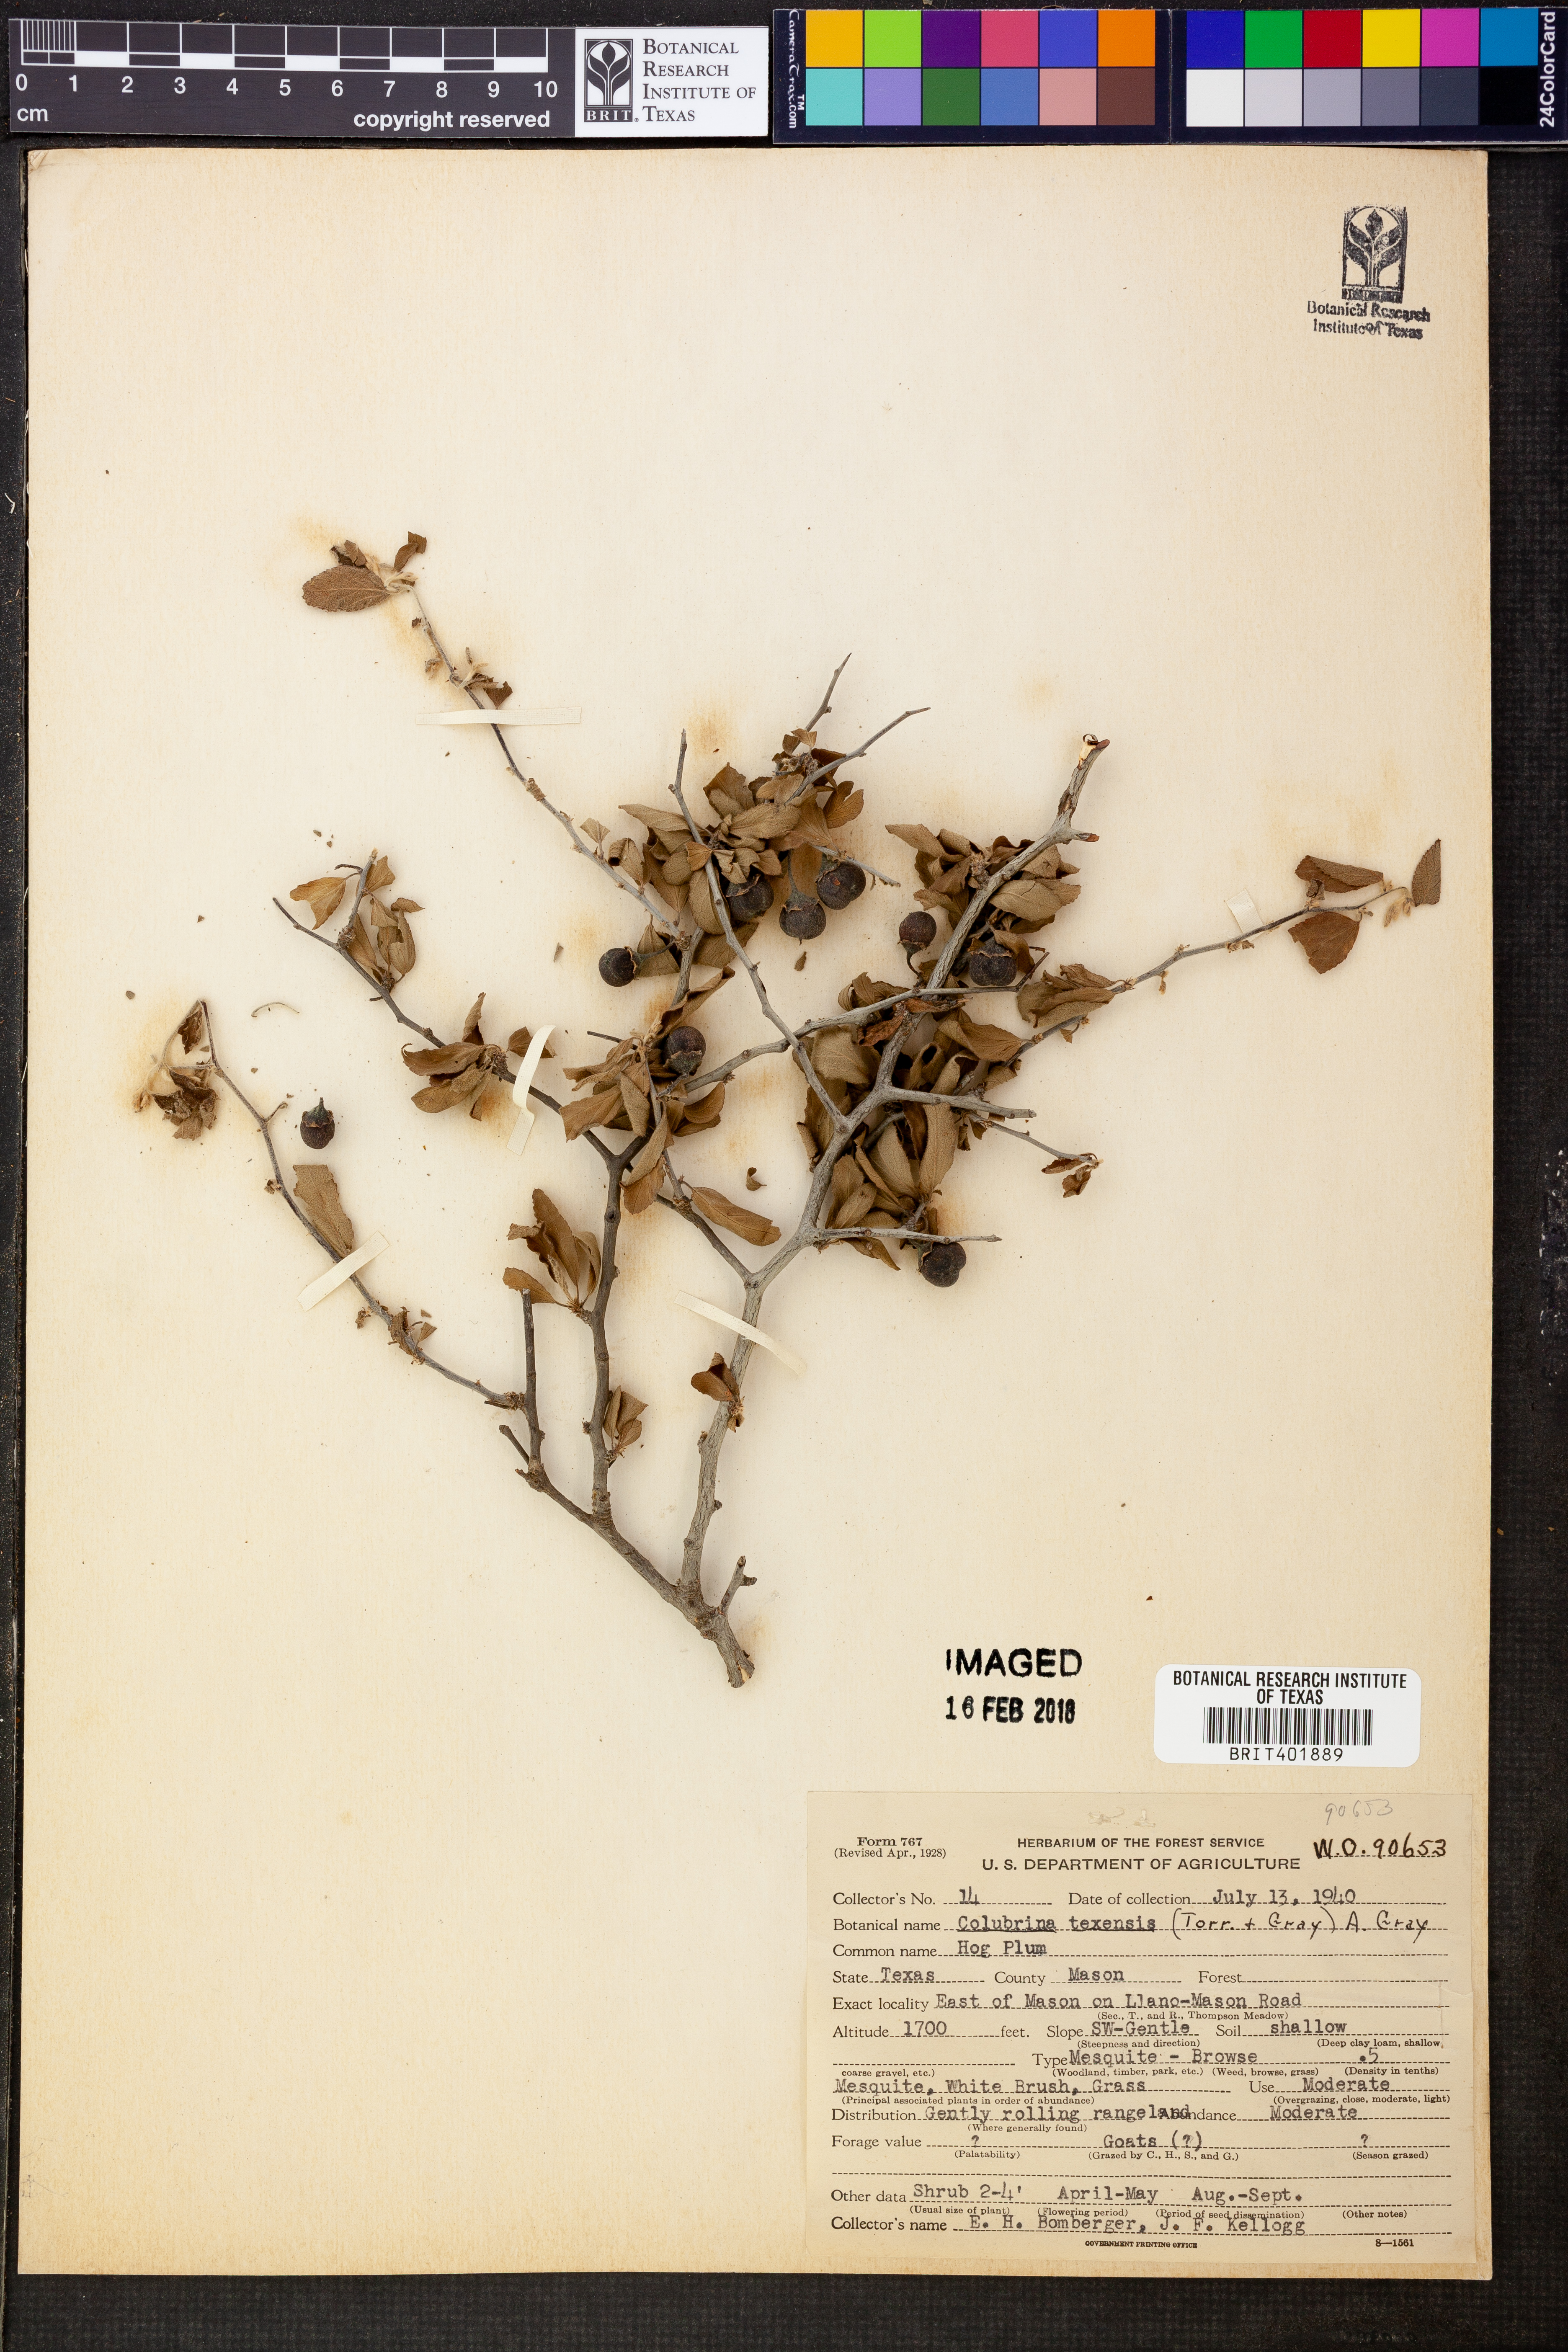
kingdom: Plantae
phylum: Tracheophyta
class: Magnoliopsida
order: Rosales
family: Rhamnaceae
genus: Colubrina
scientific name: Colubrina texensis
